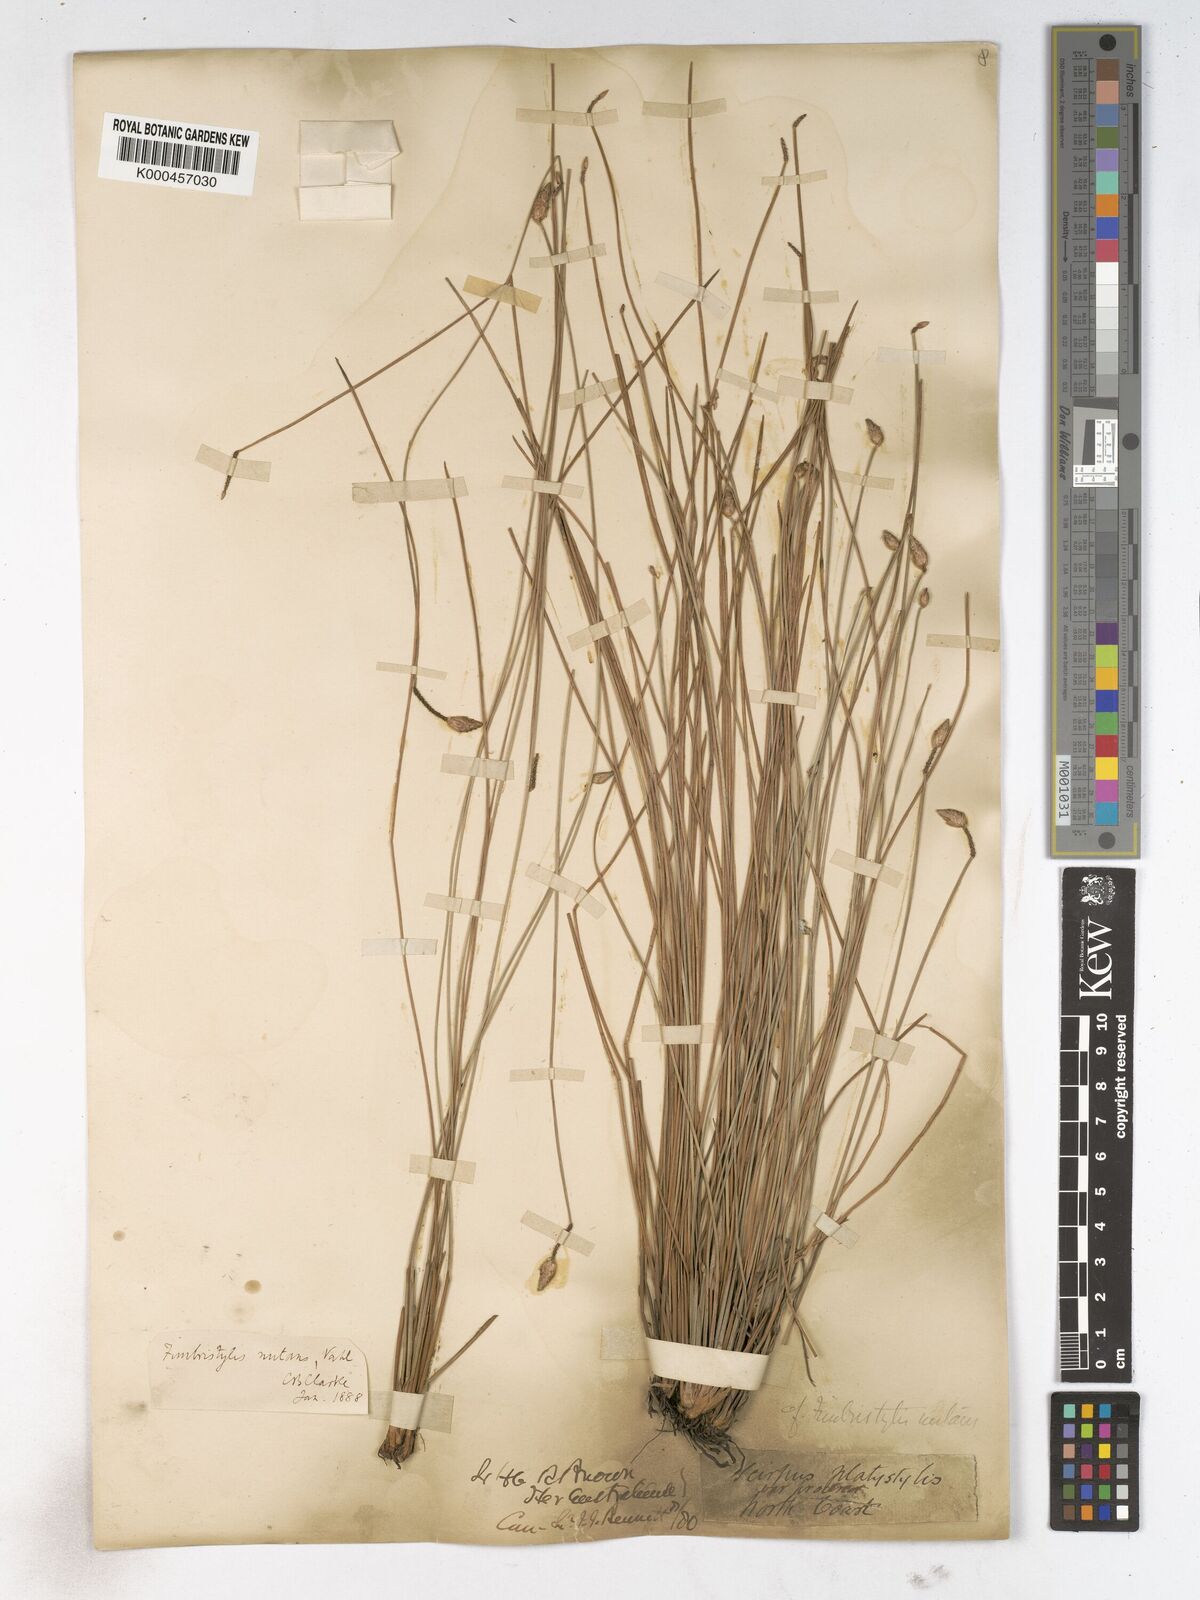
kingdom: Plantae
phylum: Tracheophyta
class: Liliopsida
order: Poales
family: Cyperaceae
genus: Fimbristylis
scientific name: Fimbristylis nutans
